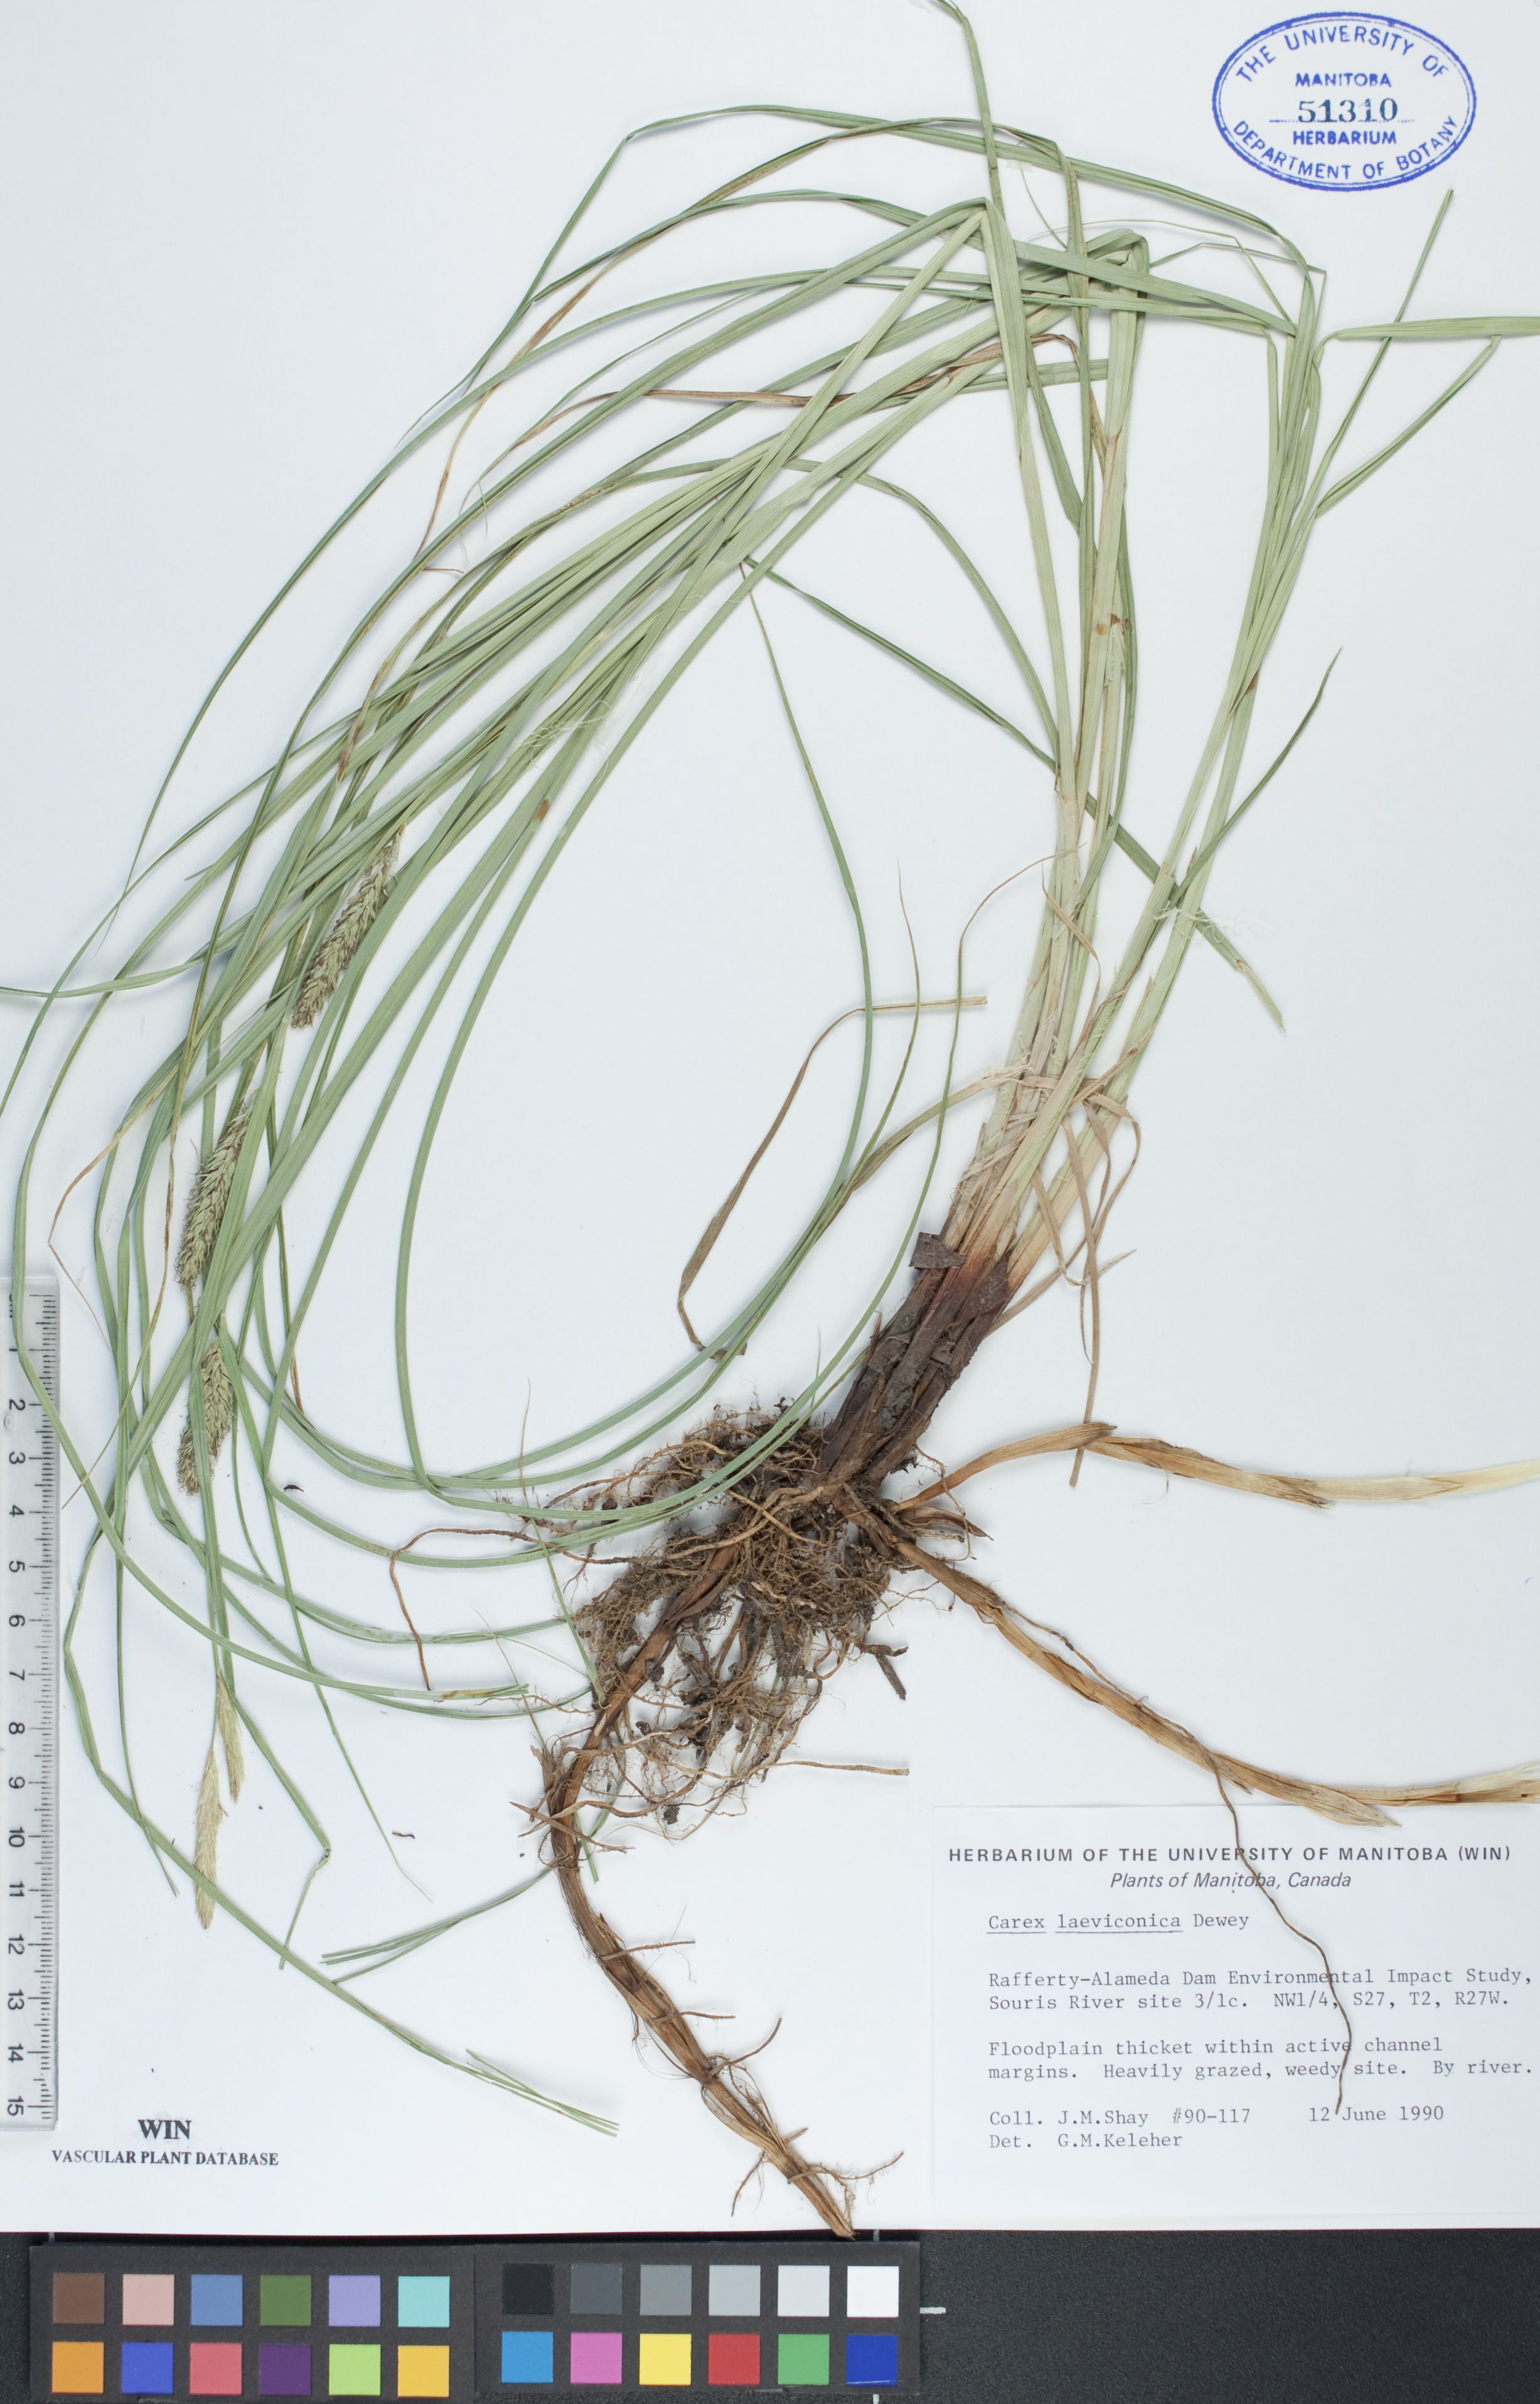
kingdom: Plantae
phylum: Tracheophyta
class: Liliopsida
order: Poales
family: Cyperaceae
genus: Carex
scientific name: Carex laeviconica
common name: Plains slough sedge
